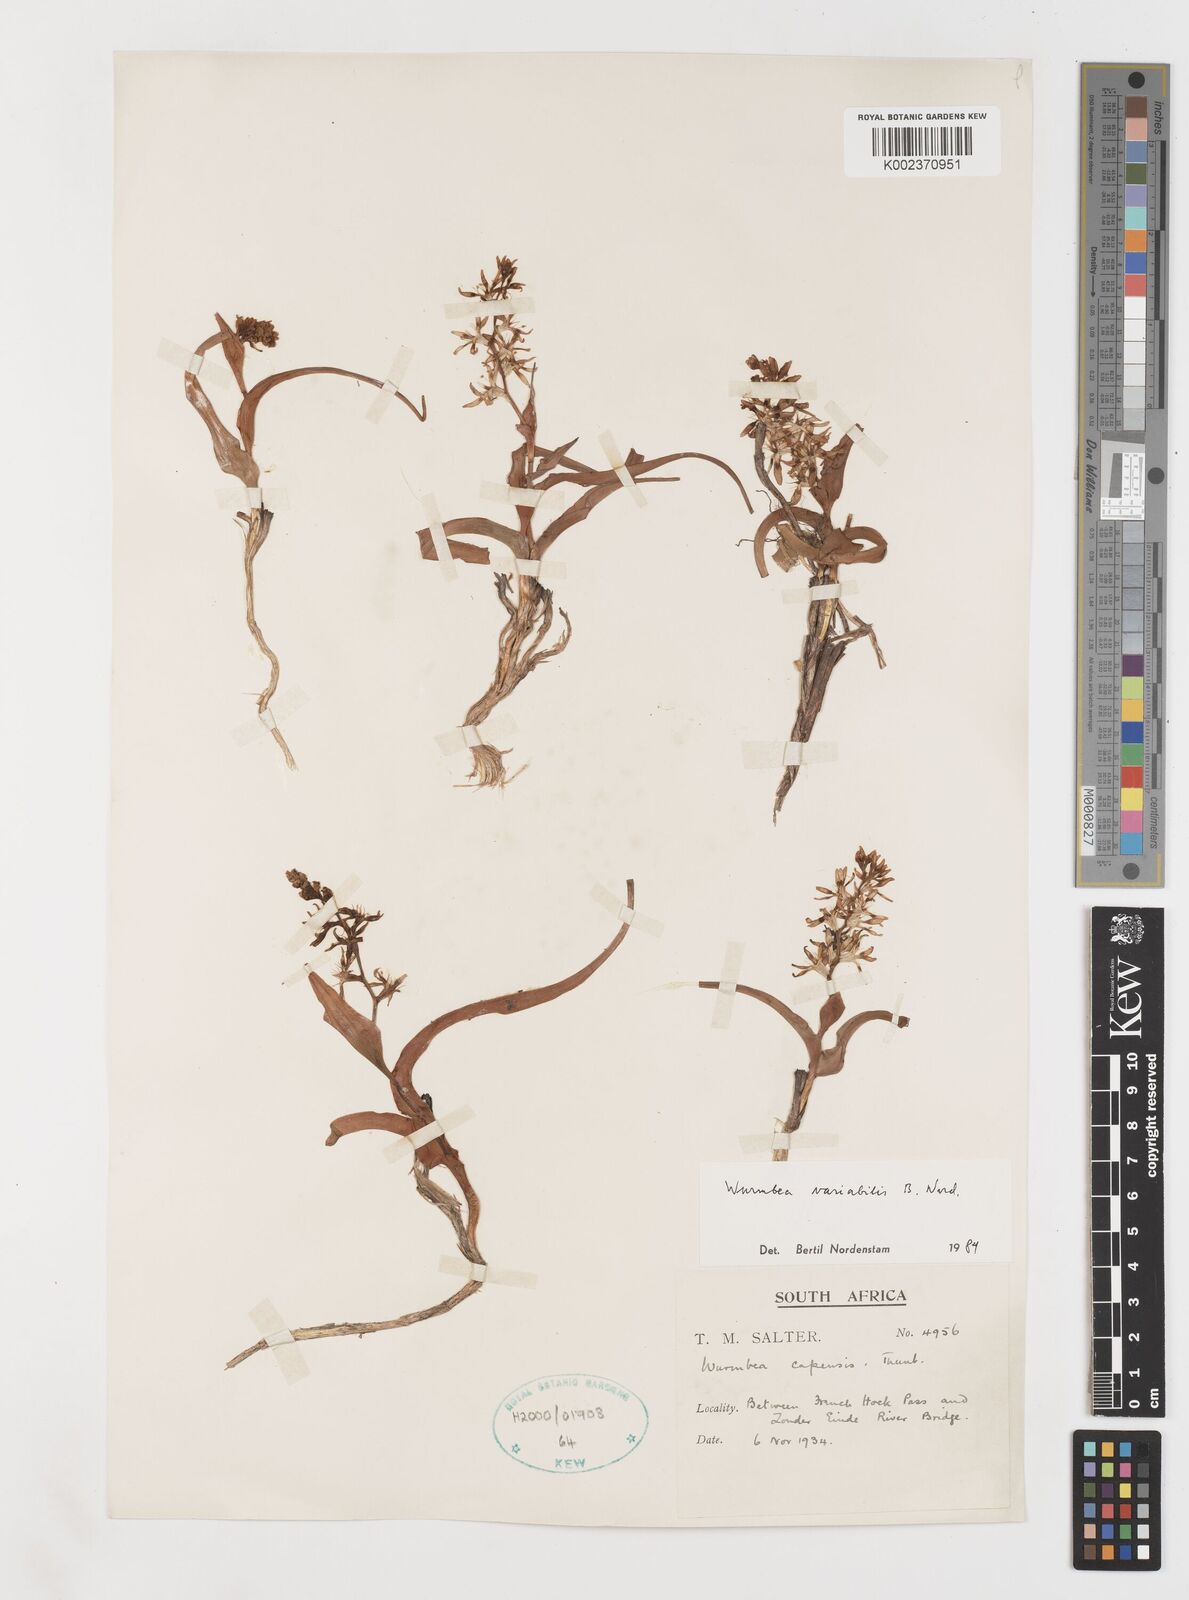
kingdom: Plantae
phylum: Tracheophyta
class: Liliopsida
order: Liliales
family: Colchicaceae
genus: Wurmbea
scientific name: Wurmbea variabilis
